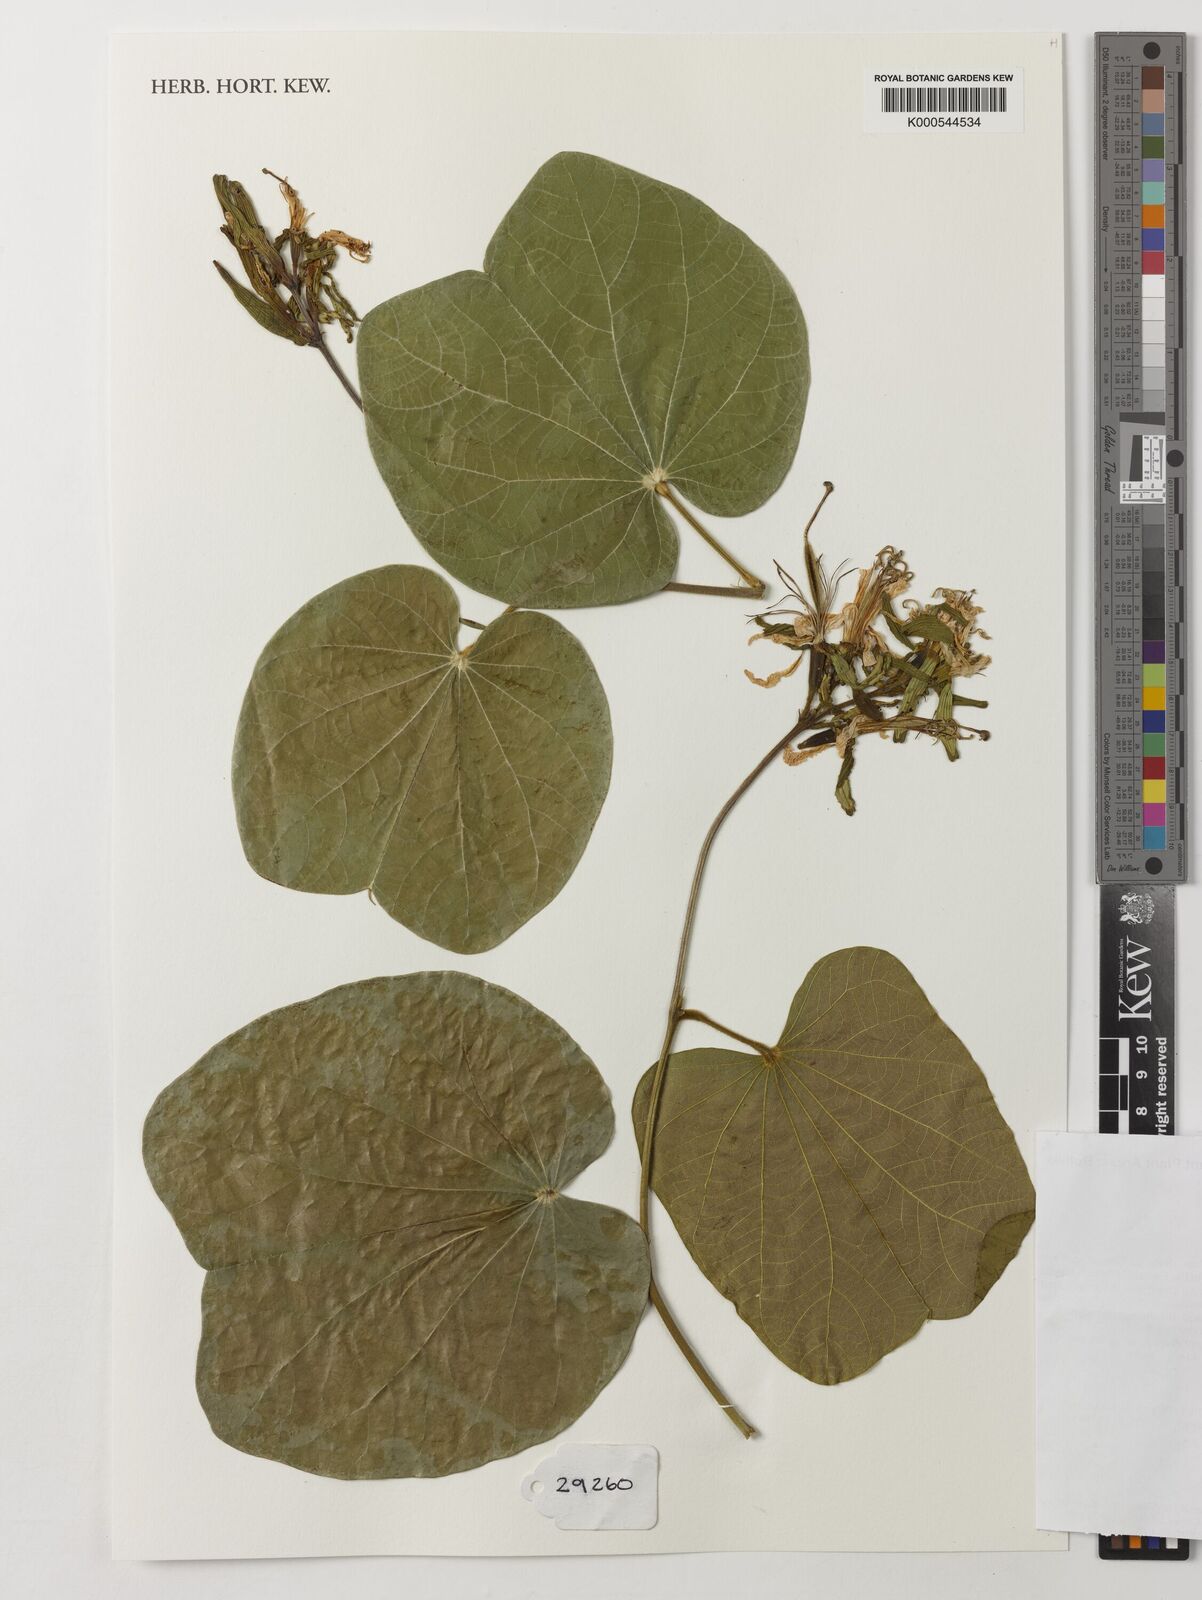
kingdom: Plantae
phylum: Tracheophyta
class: Magnoliopsida
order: Fabales
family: Fabaceae
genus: Bauhinia
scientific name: Bauhinia
